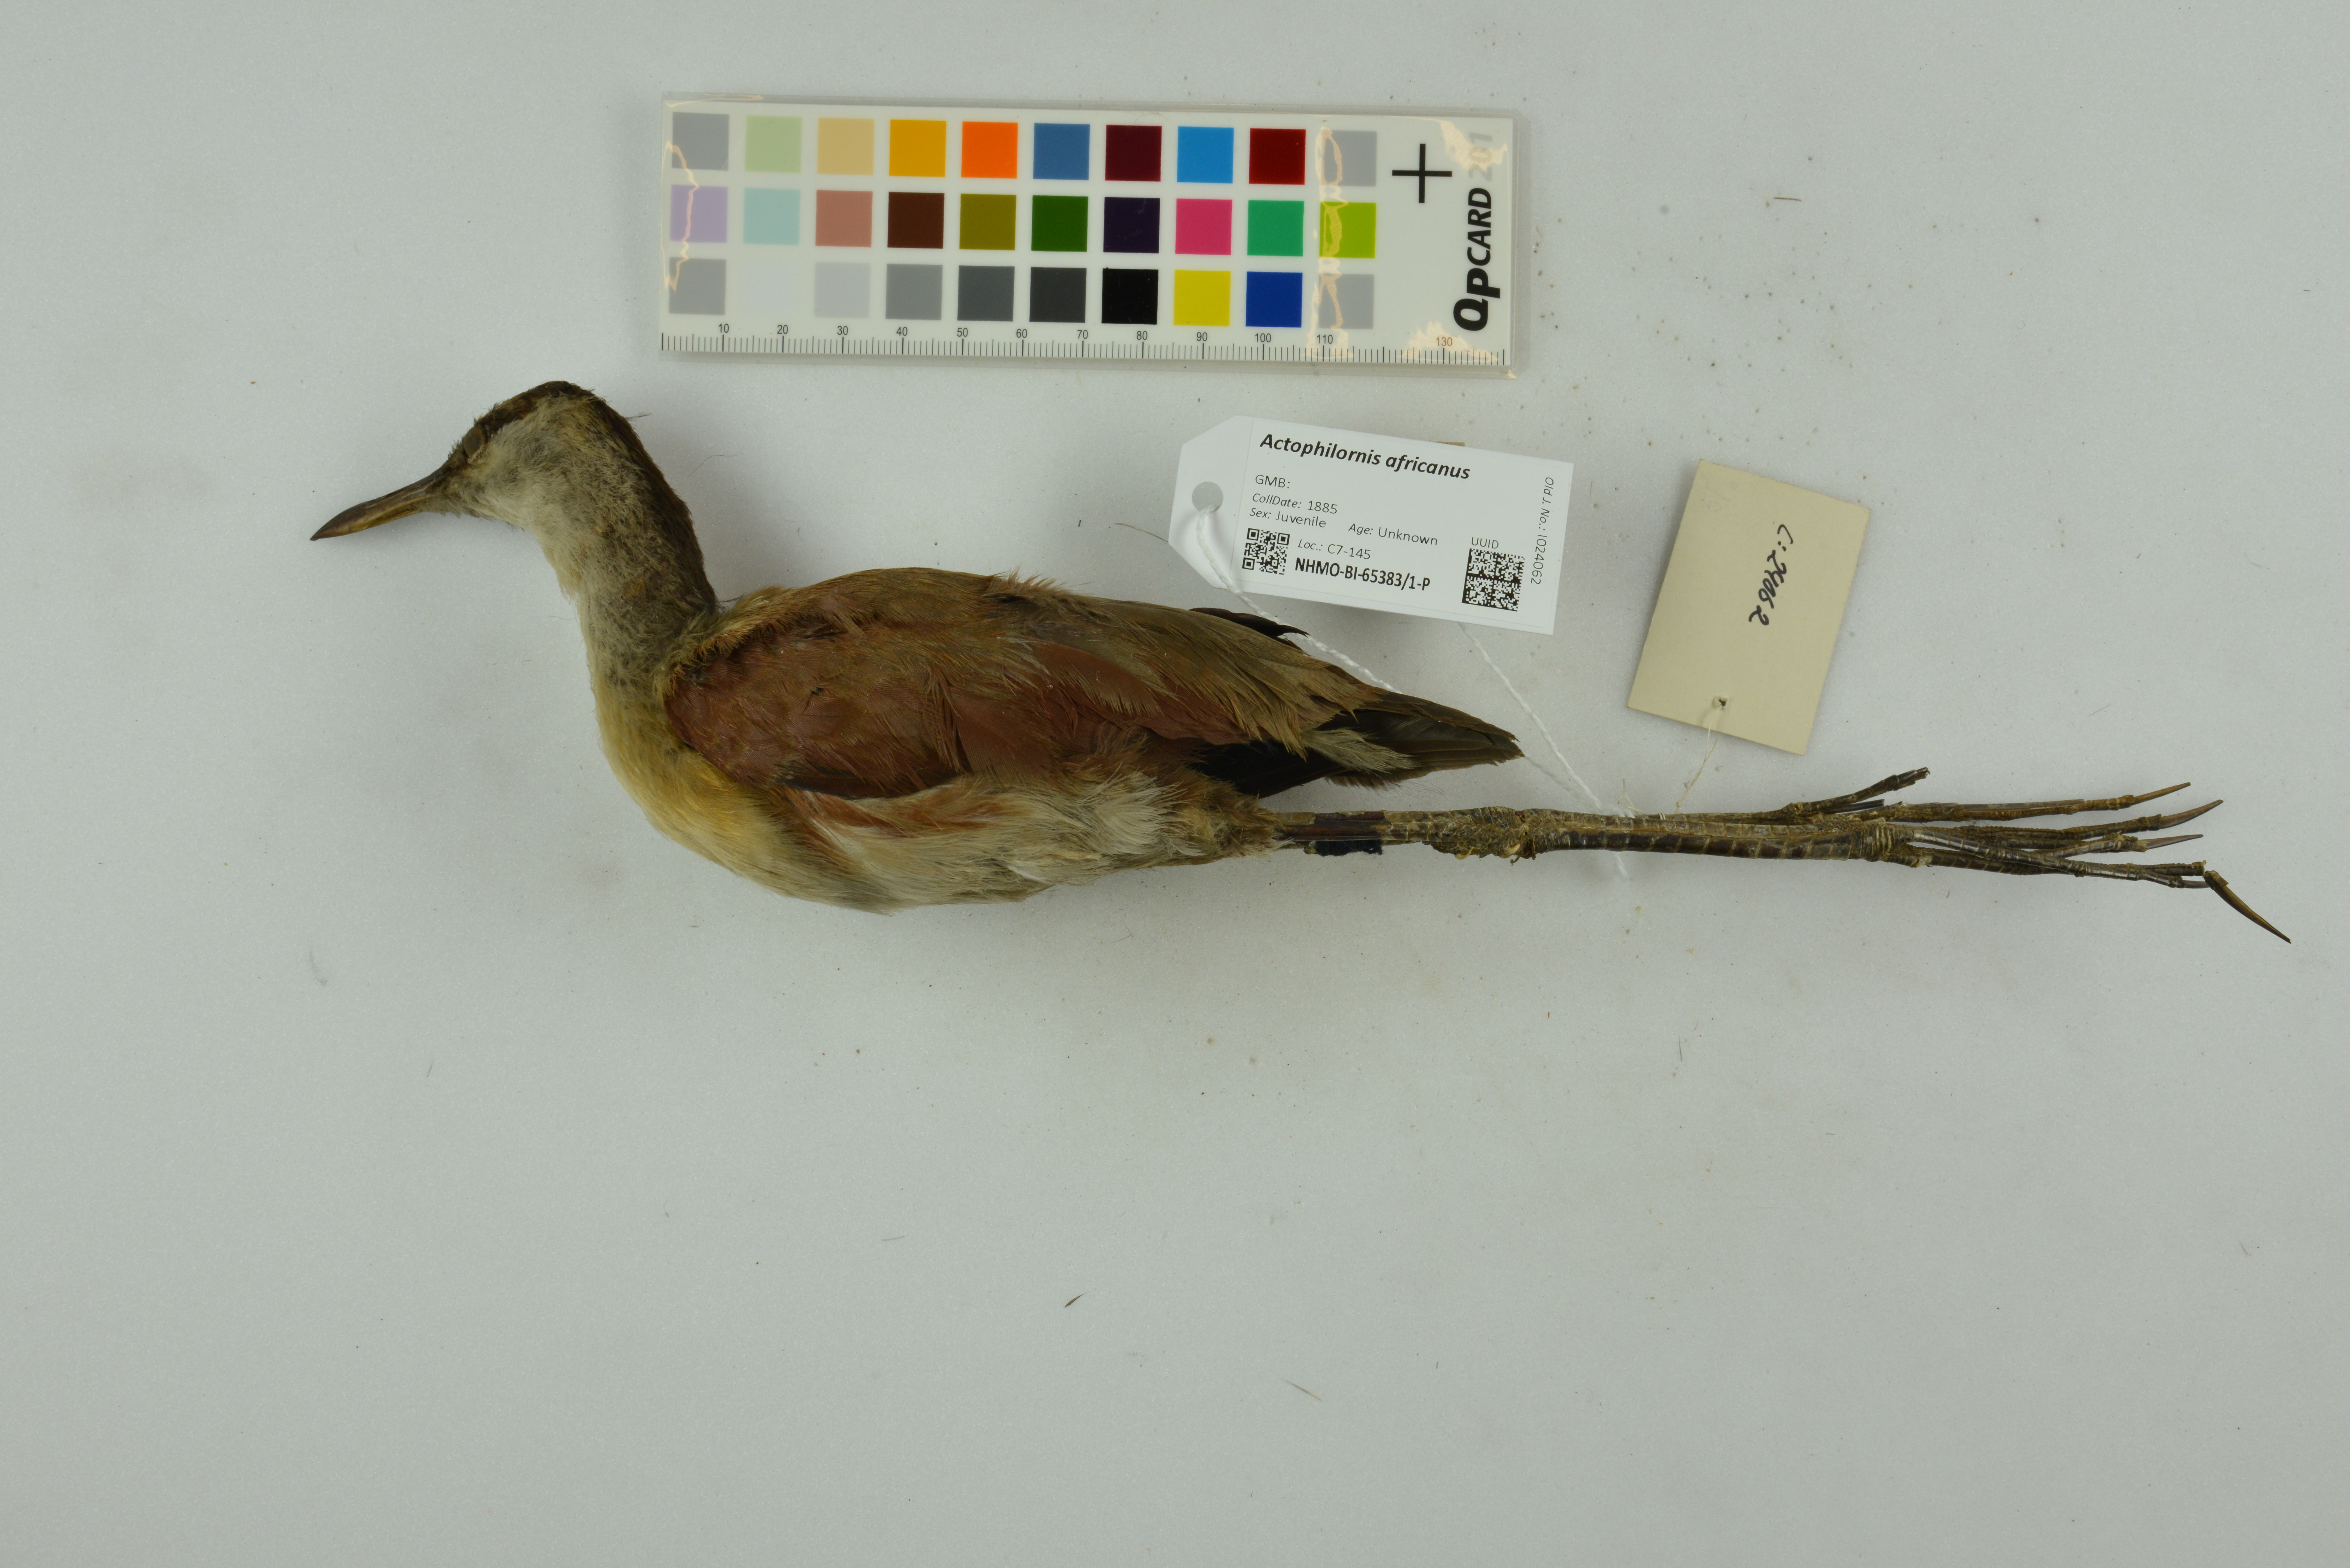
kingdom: Animalia
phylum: Chordata
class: Aves
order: Charadriiformes
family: Jacanidae
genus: Actophilornis
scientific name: Actophilornis africanus
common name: African jacana
